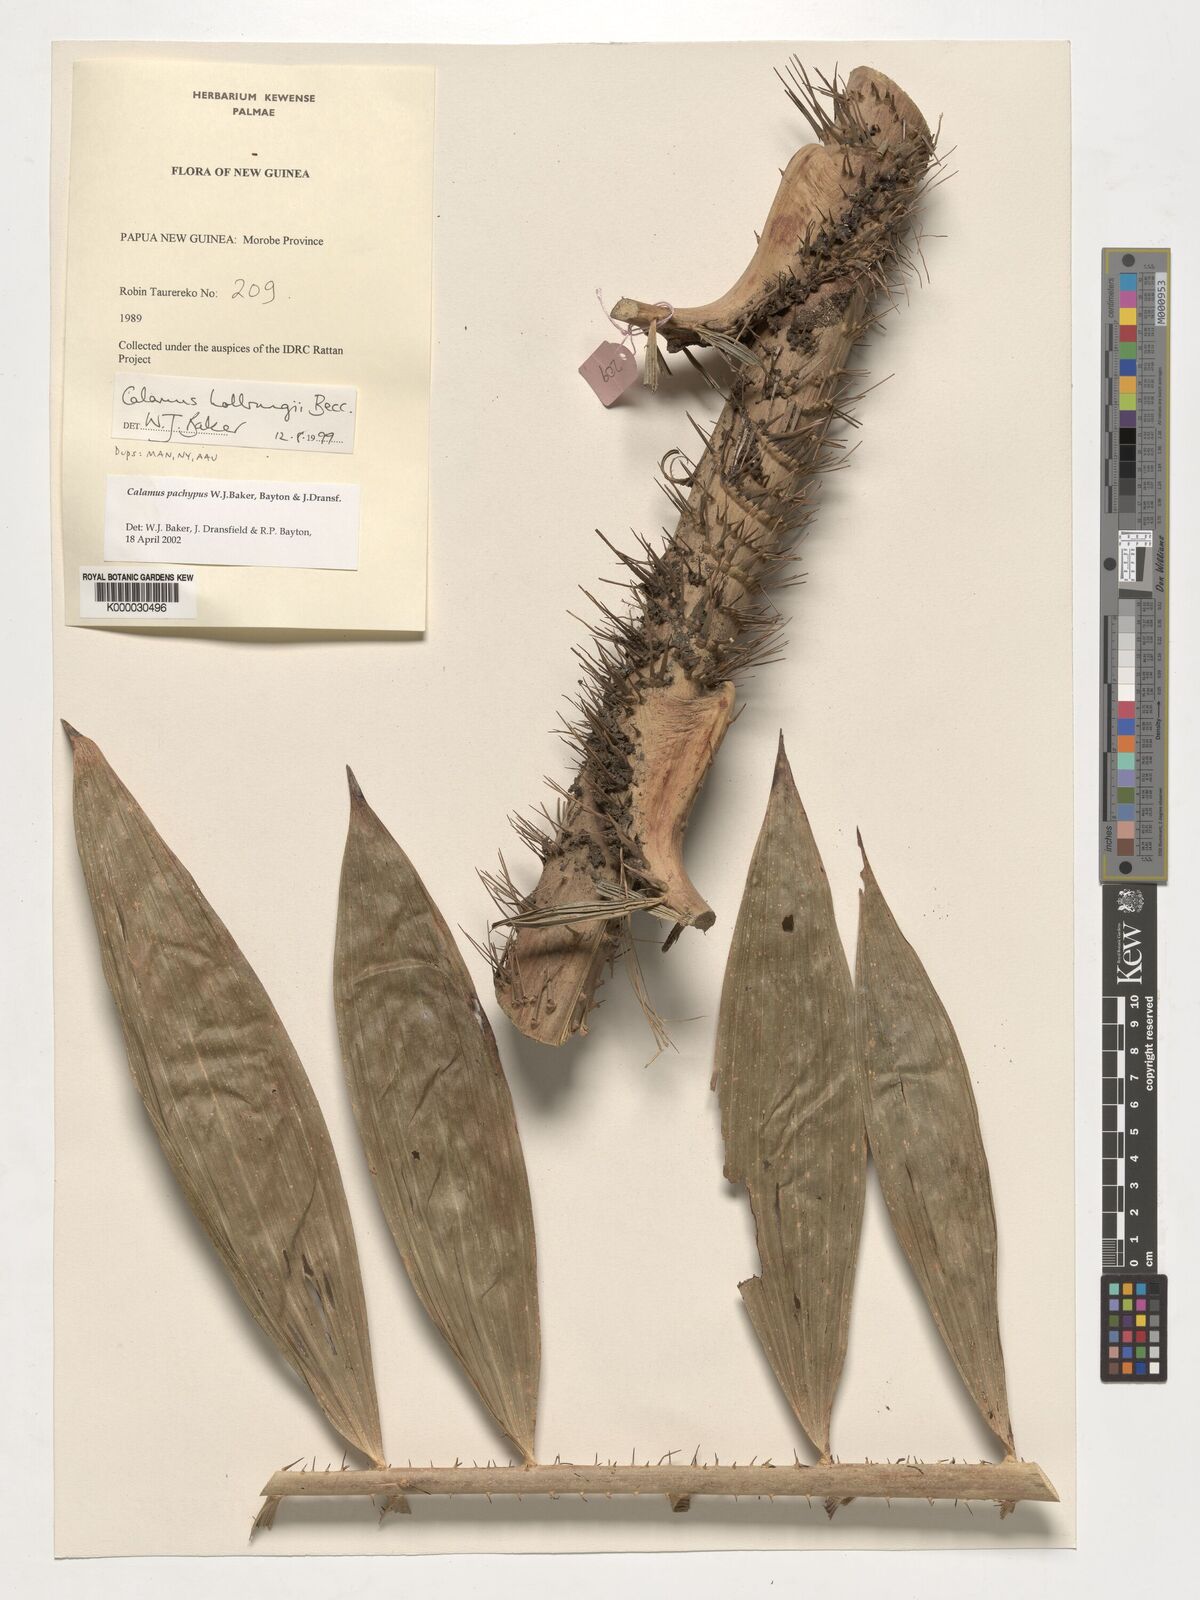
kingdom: Plantae
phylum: Tracheophyta
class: Liliopsida
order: Arecales
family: Arecaceae
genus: Calamus
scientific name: Calamus
